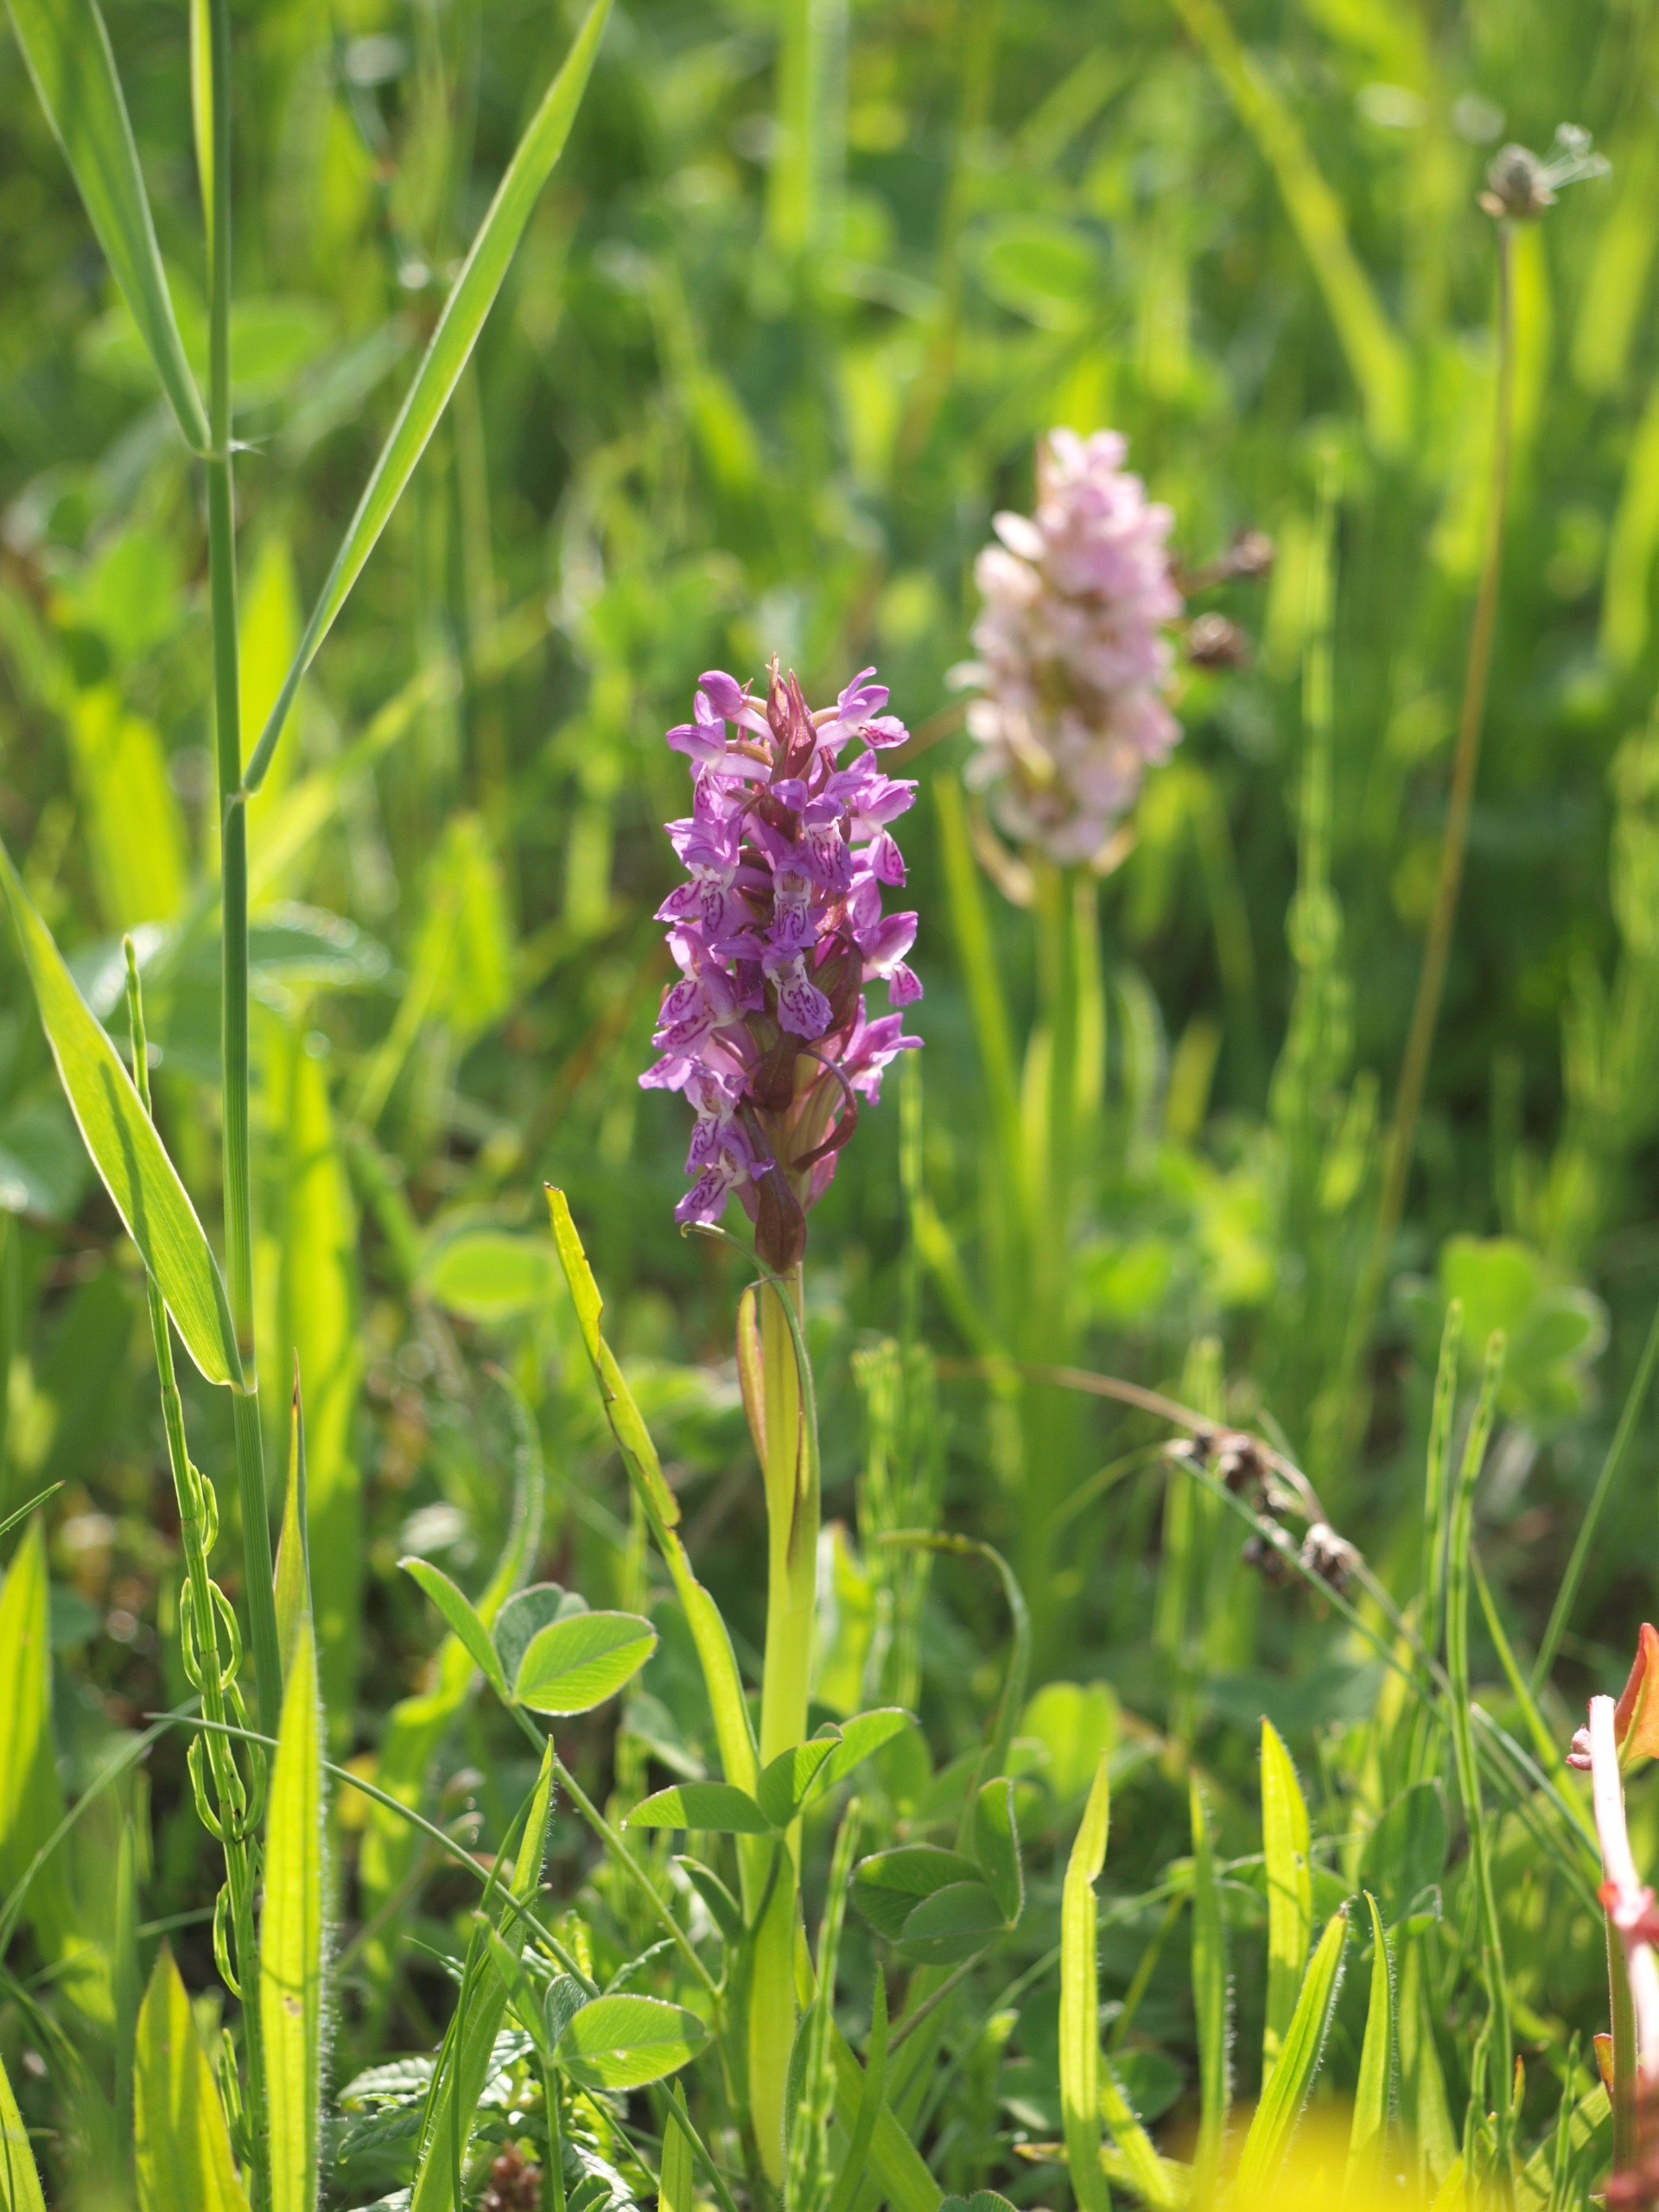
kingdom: Plantae
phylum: Tracheophyta
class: Liliopsida
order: Asparagales
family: Orchidaceae
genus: Dactylorhiza
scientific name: Dactylorhiza incarnata
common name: Kødfarvet gøgeurt
